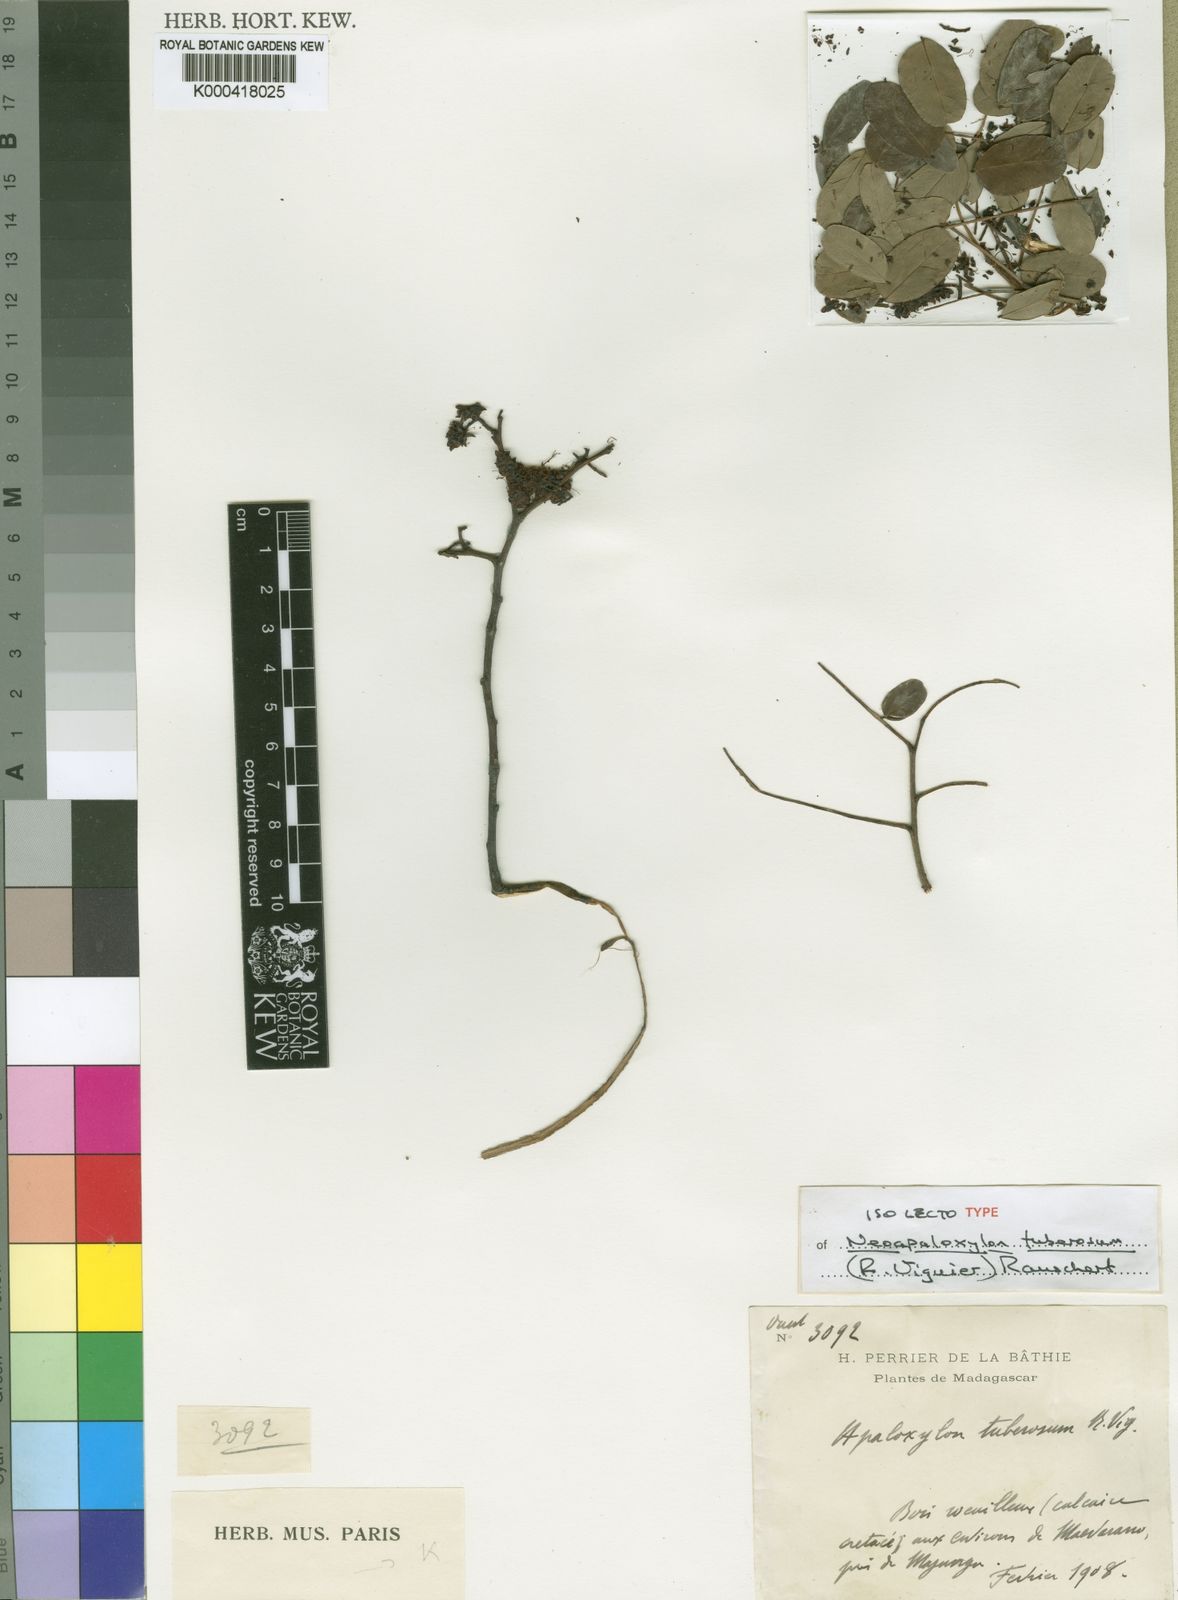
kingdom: Plantae
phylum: Tracheophyta
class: Magnoliopsida
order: Fabales
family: Fabaceae
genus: Neoapaloxylon
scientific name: Neoapaloxylon tuberosum
